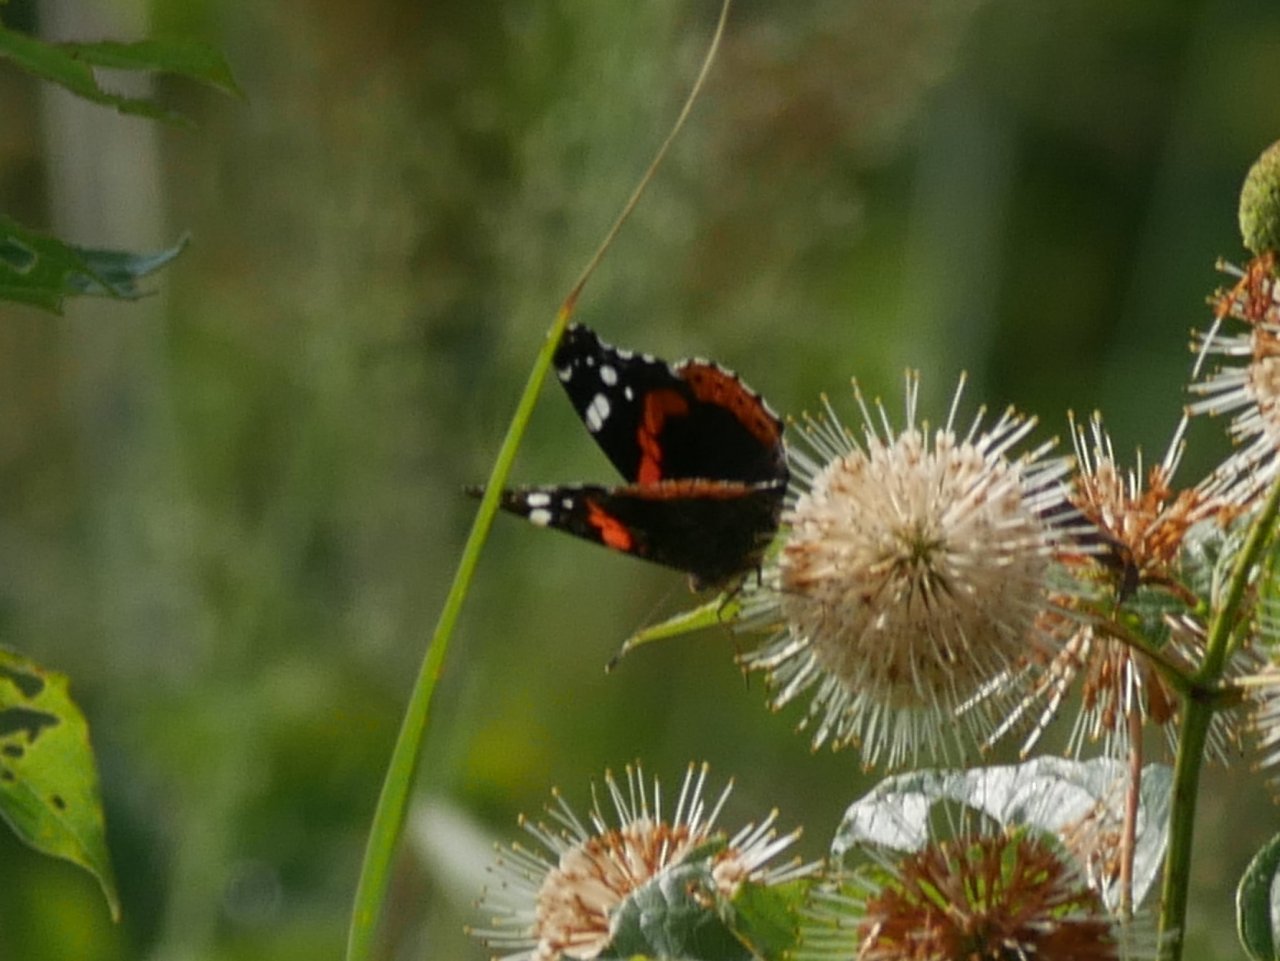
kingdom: Animalia
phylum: Arthropoda
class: Insecta
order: Lepidoptera
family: Nymphalidae
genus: Vanessa
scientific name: Vanessa atalanta
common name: Red Admiral
